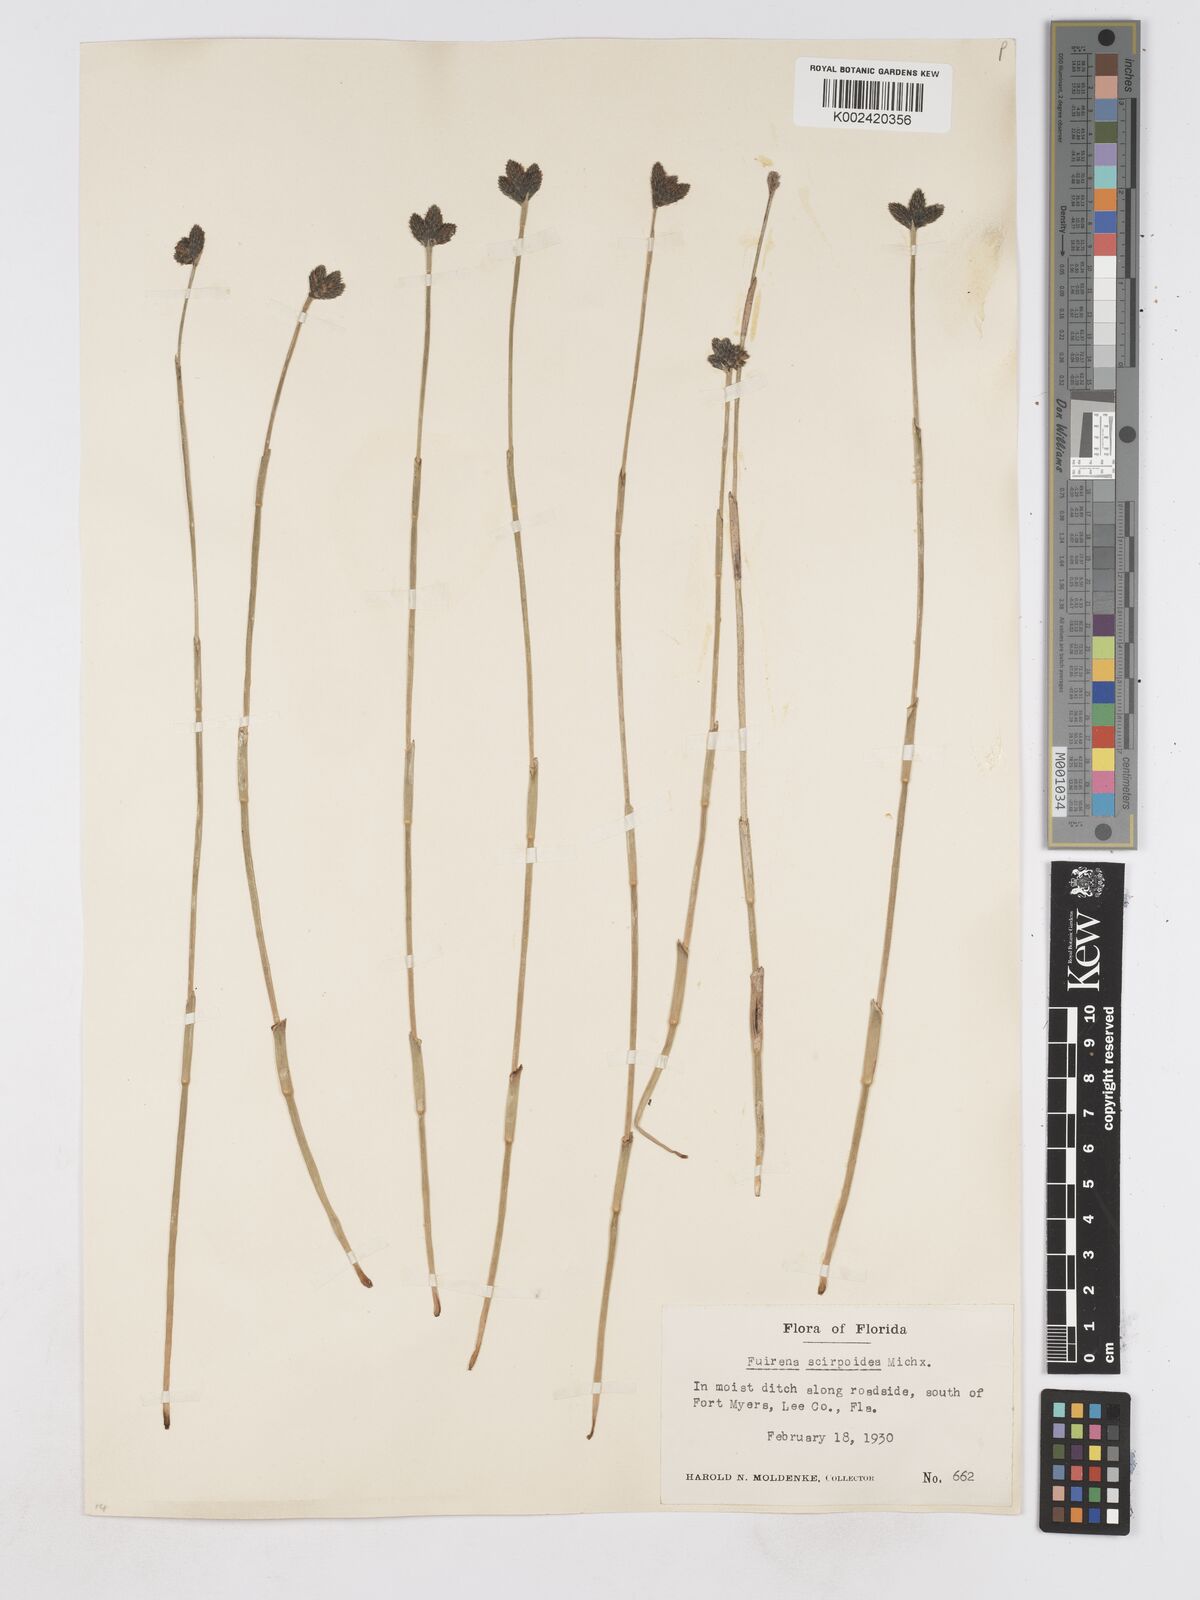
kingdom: Plantae
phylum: Tracheophyta
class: Liliopsida
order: Poales
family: Cyperaceae
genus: Fuirena
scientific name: Fuirena scirpoidea
